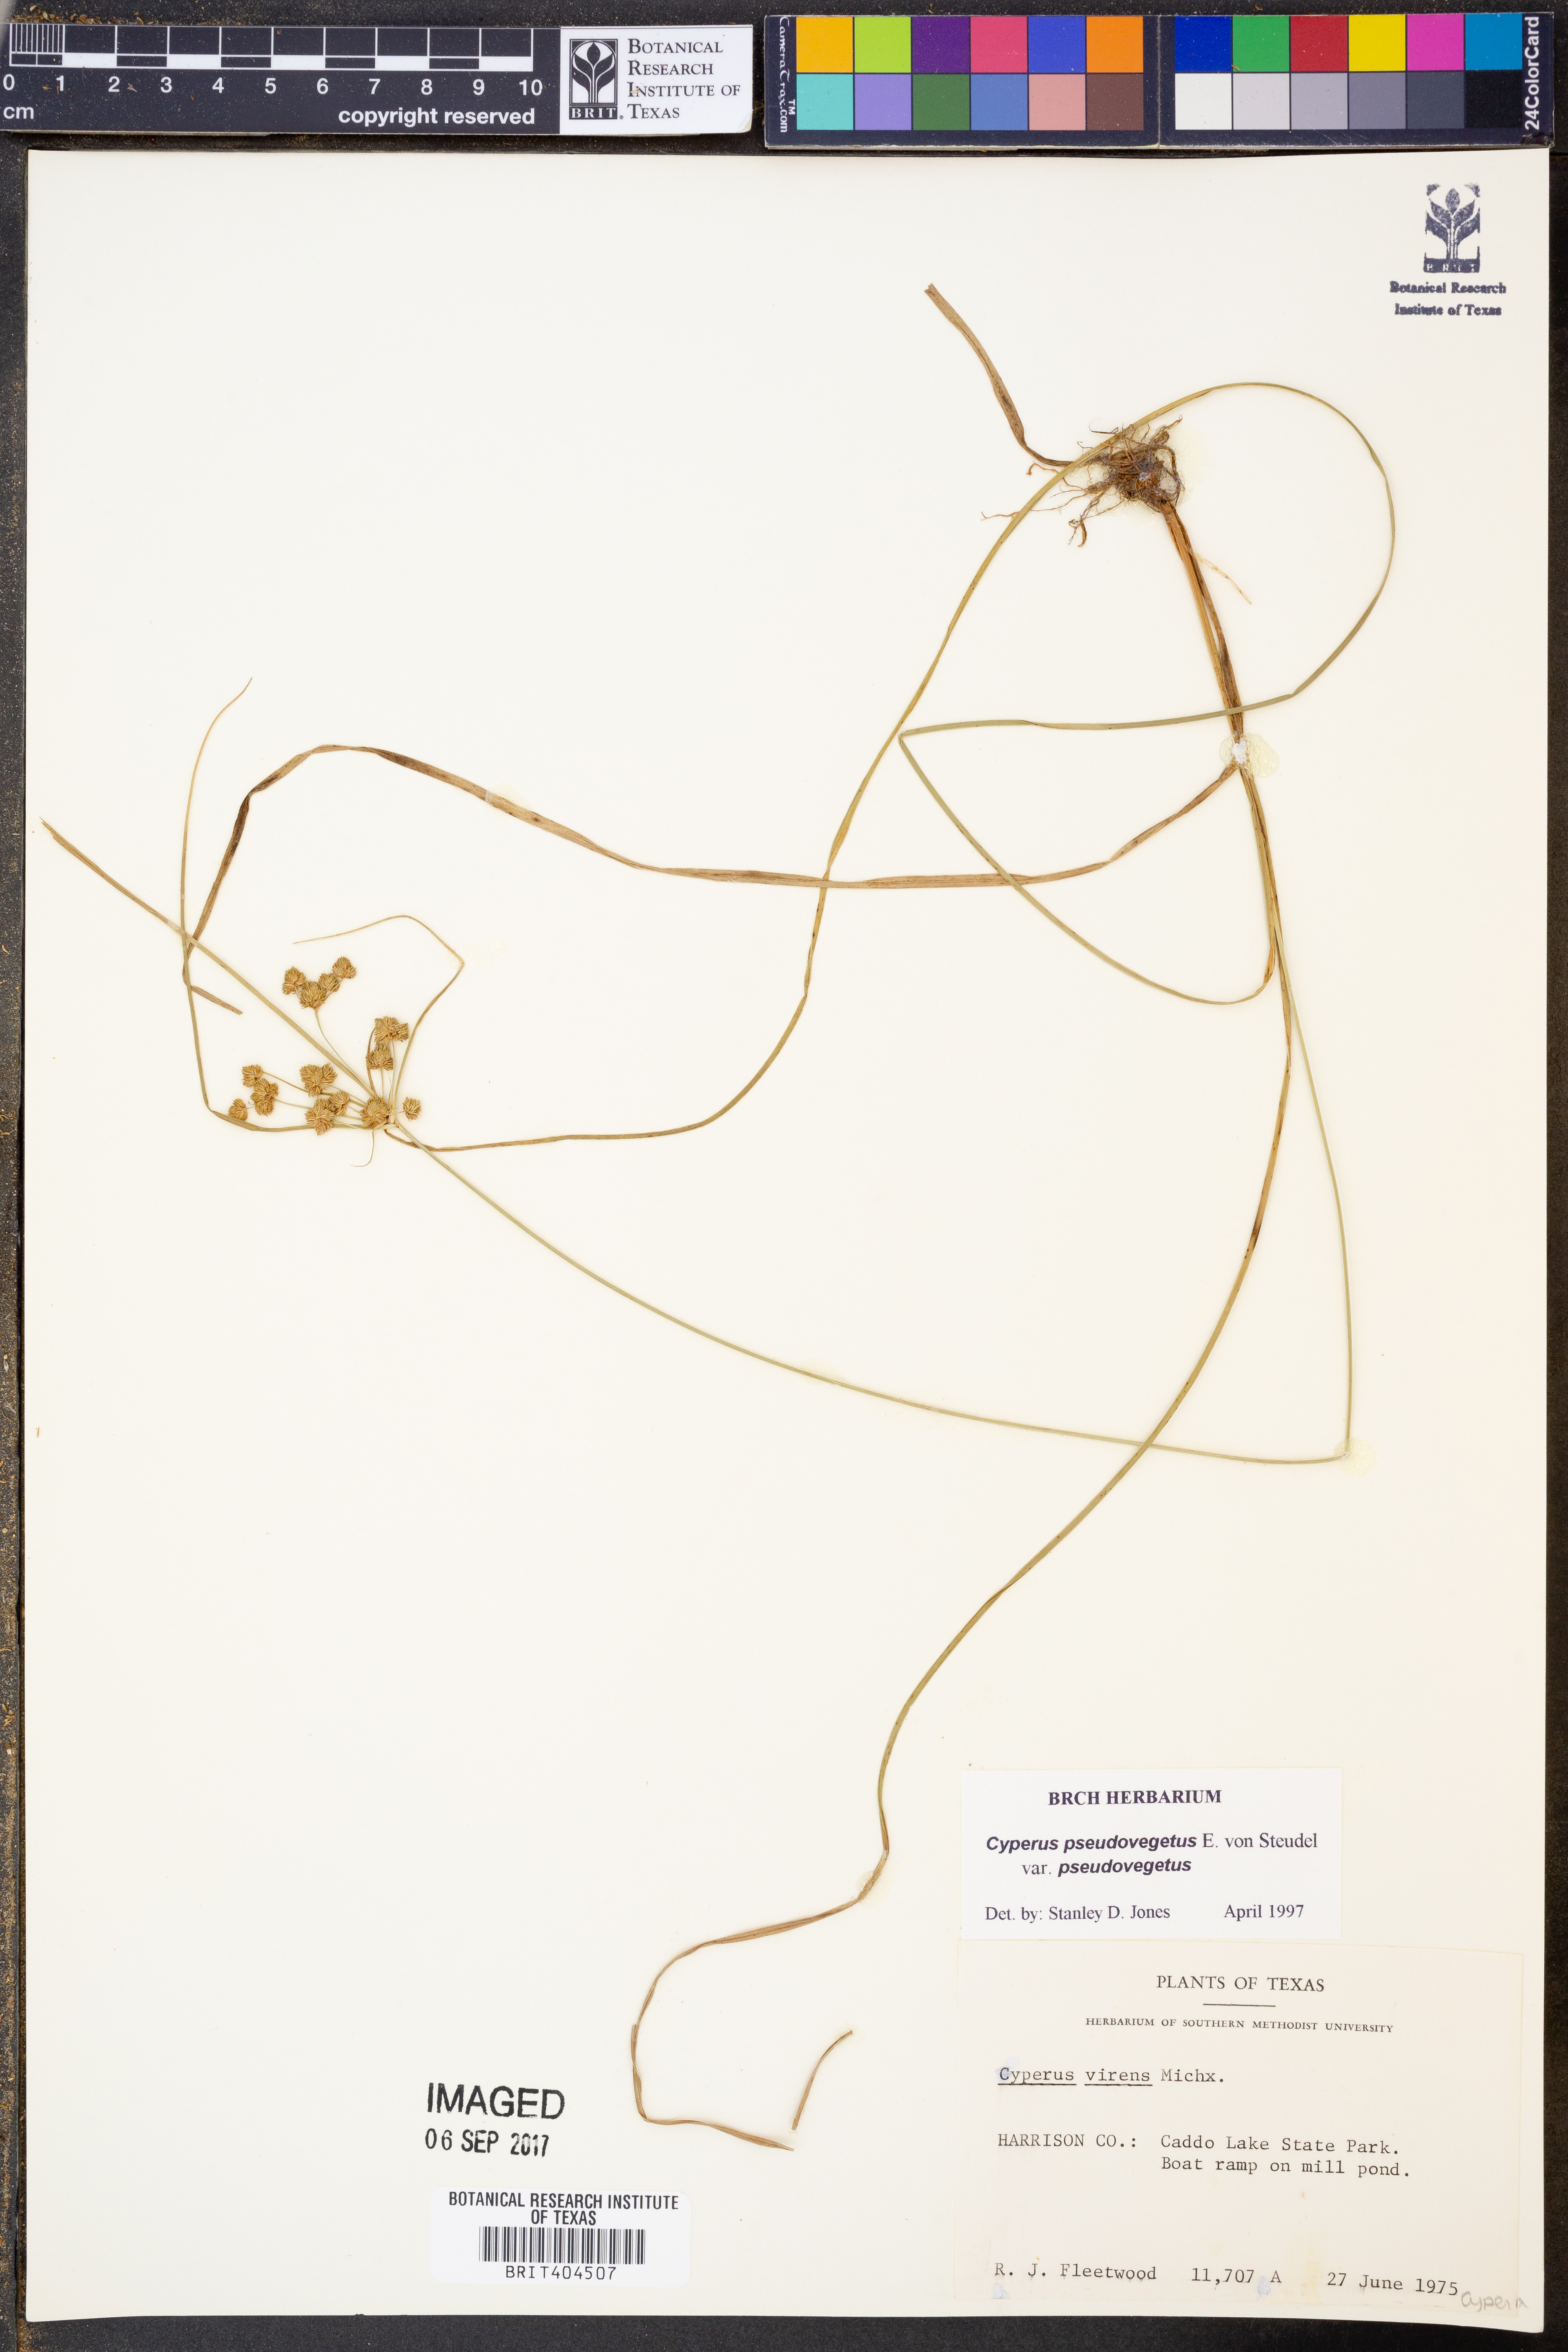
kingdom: Plantae
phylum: Tracheophyta
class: Liliopsida
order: Poales
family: Cyperaceae
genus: Cyperus
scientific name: Cyperus pseudovegetus
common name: Marsh flat sedge
